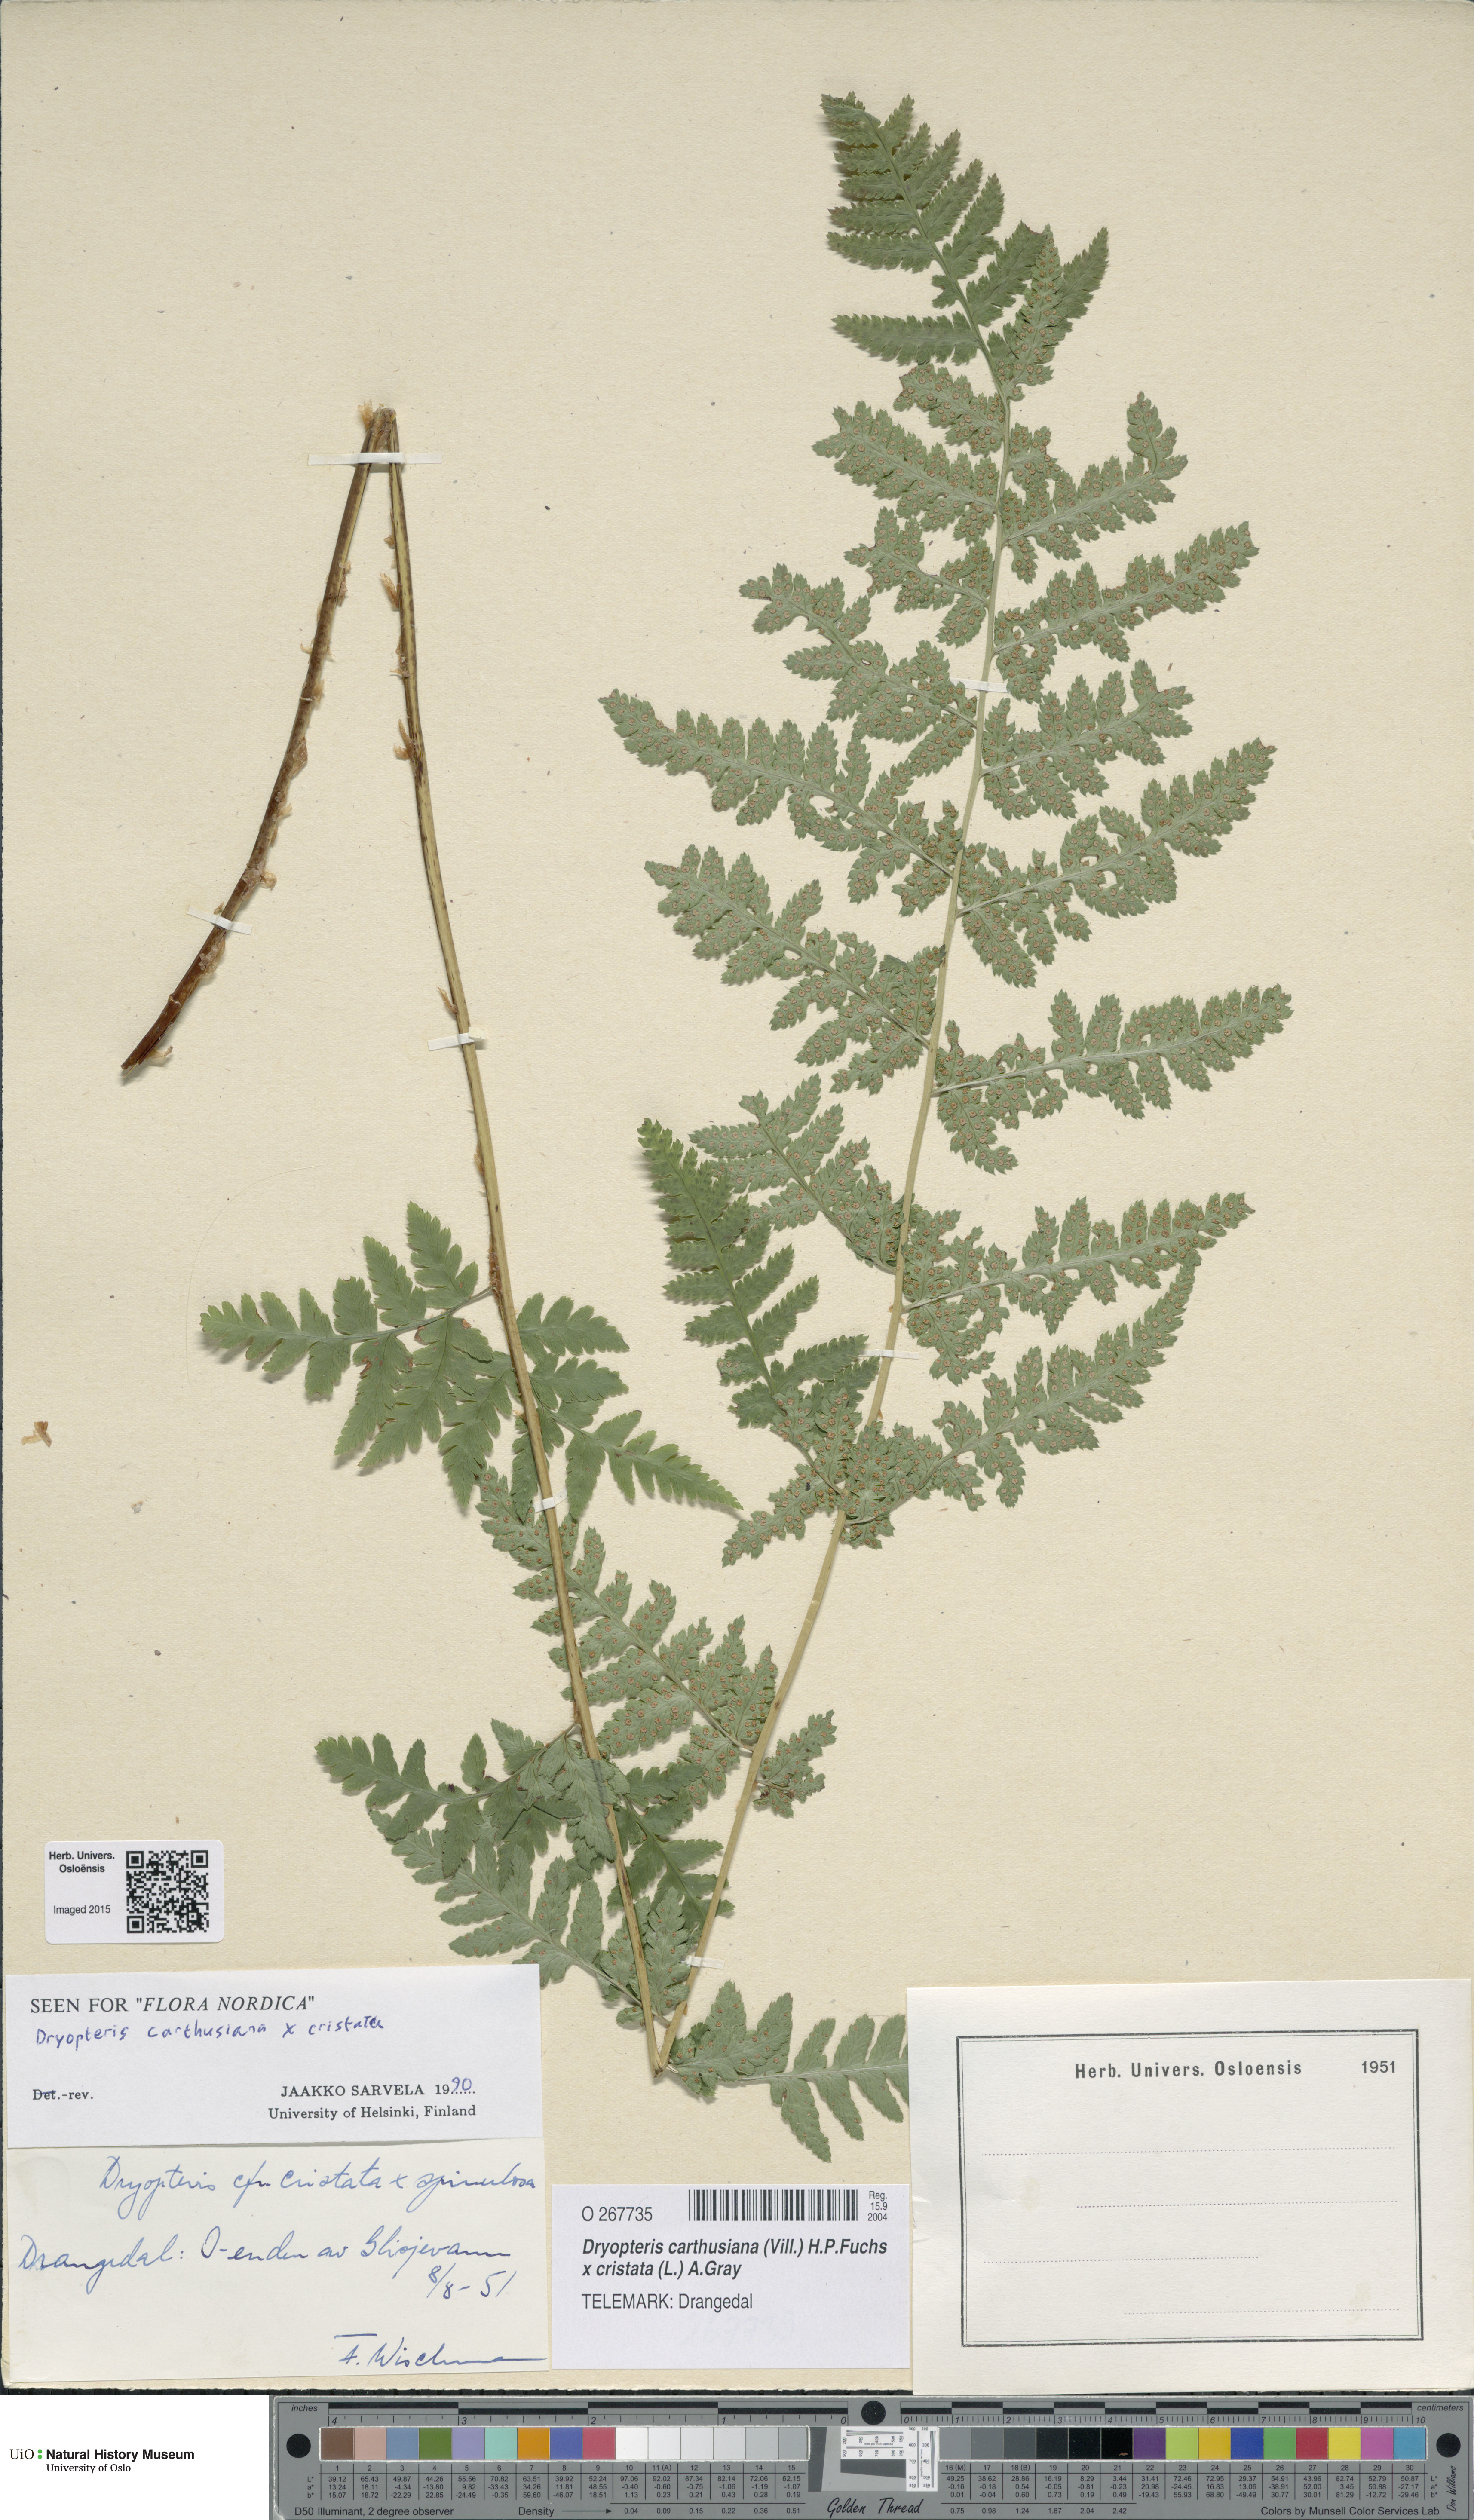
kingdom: Plantae
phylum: Tracheophyta
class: Polypodiopsida
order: Polypodiales
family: Dryopteridaceae
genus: Dryopteris
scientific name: Dryopteris
